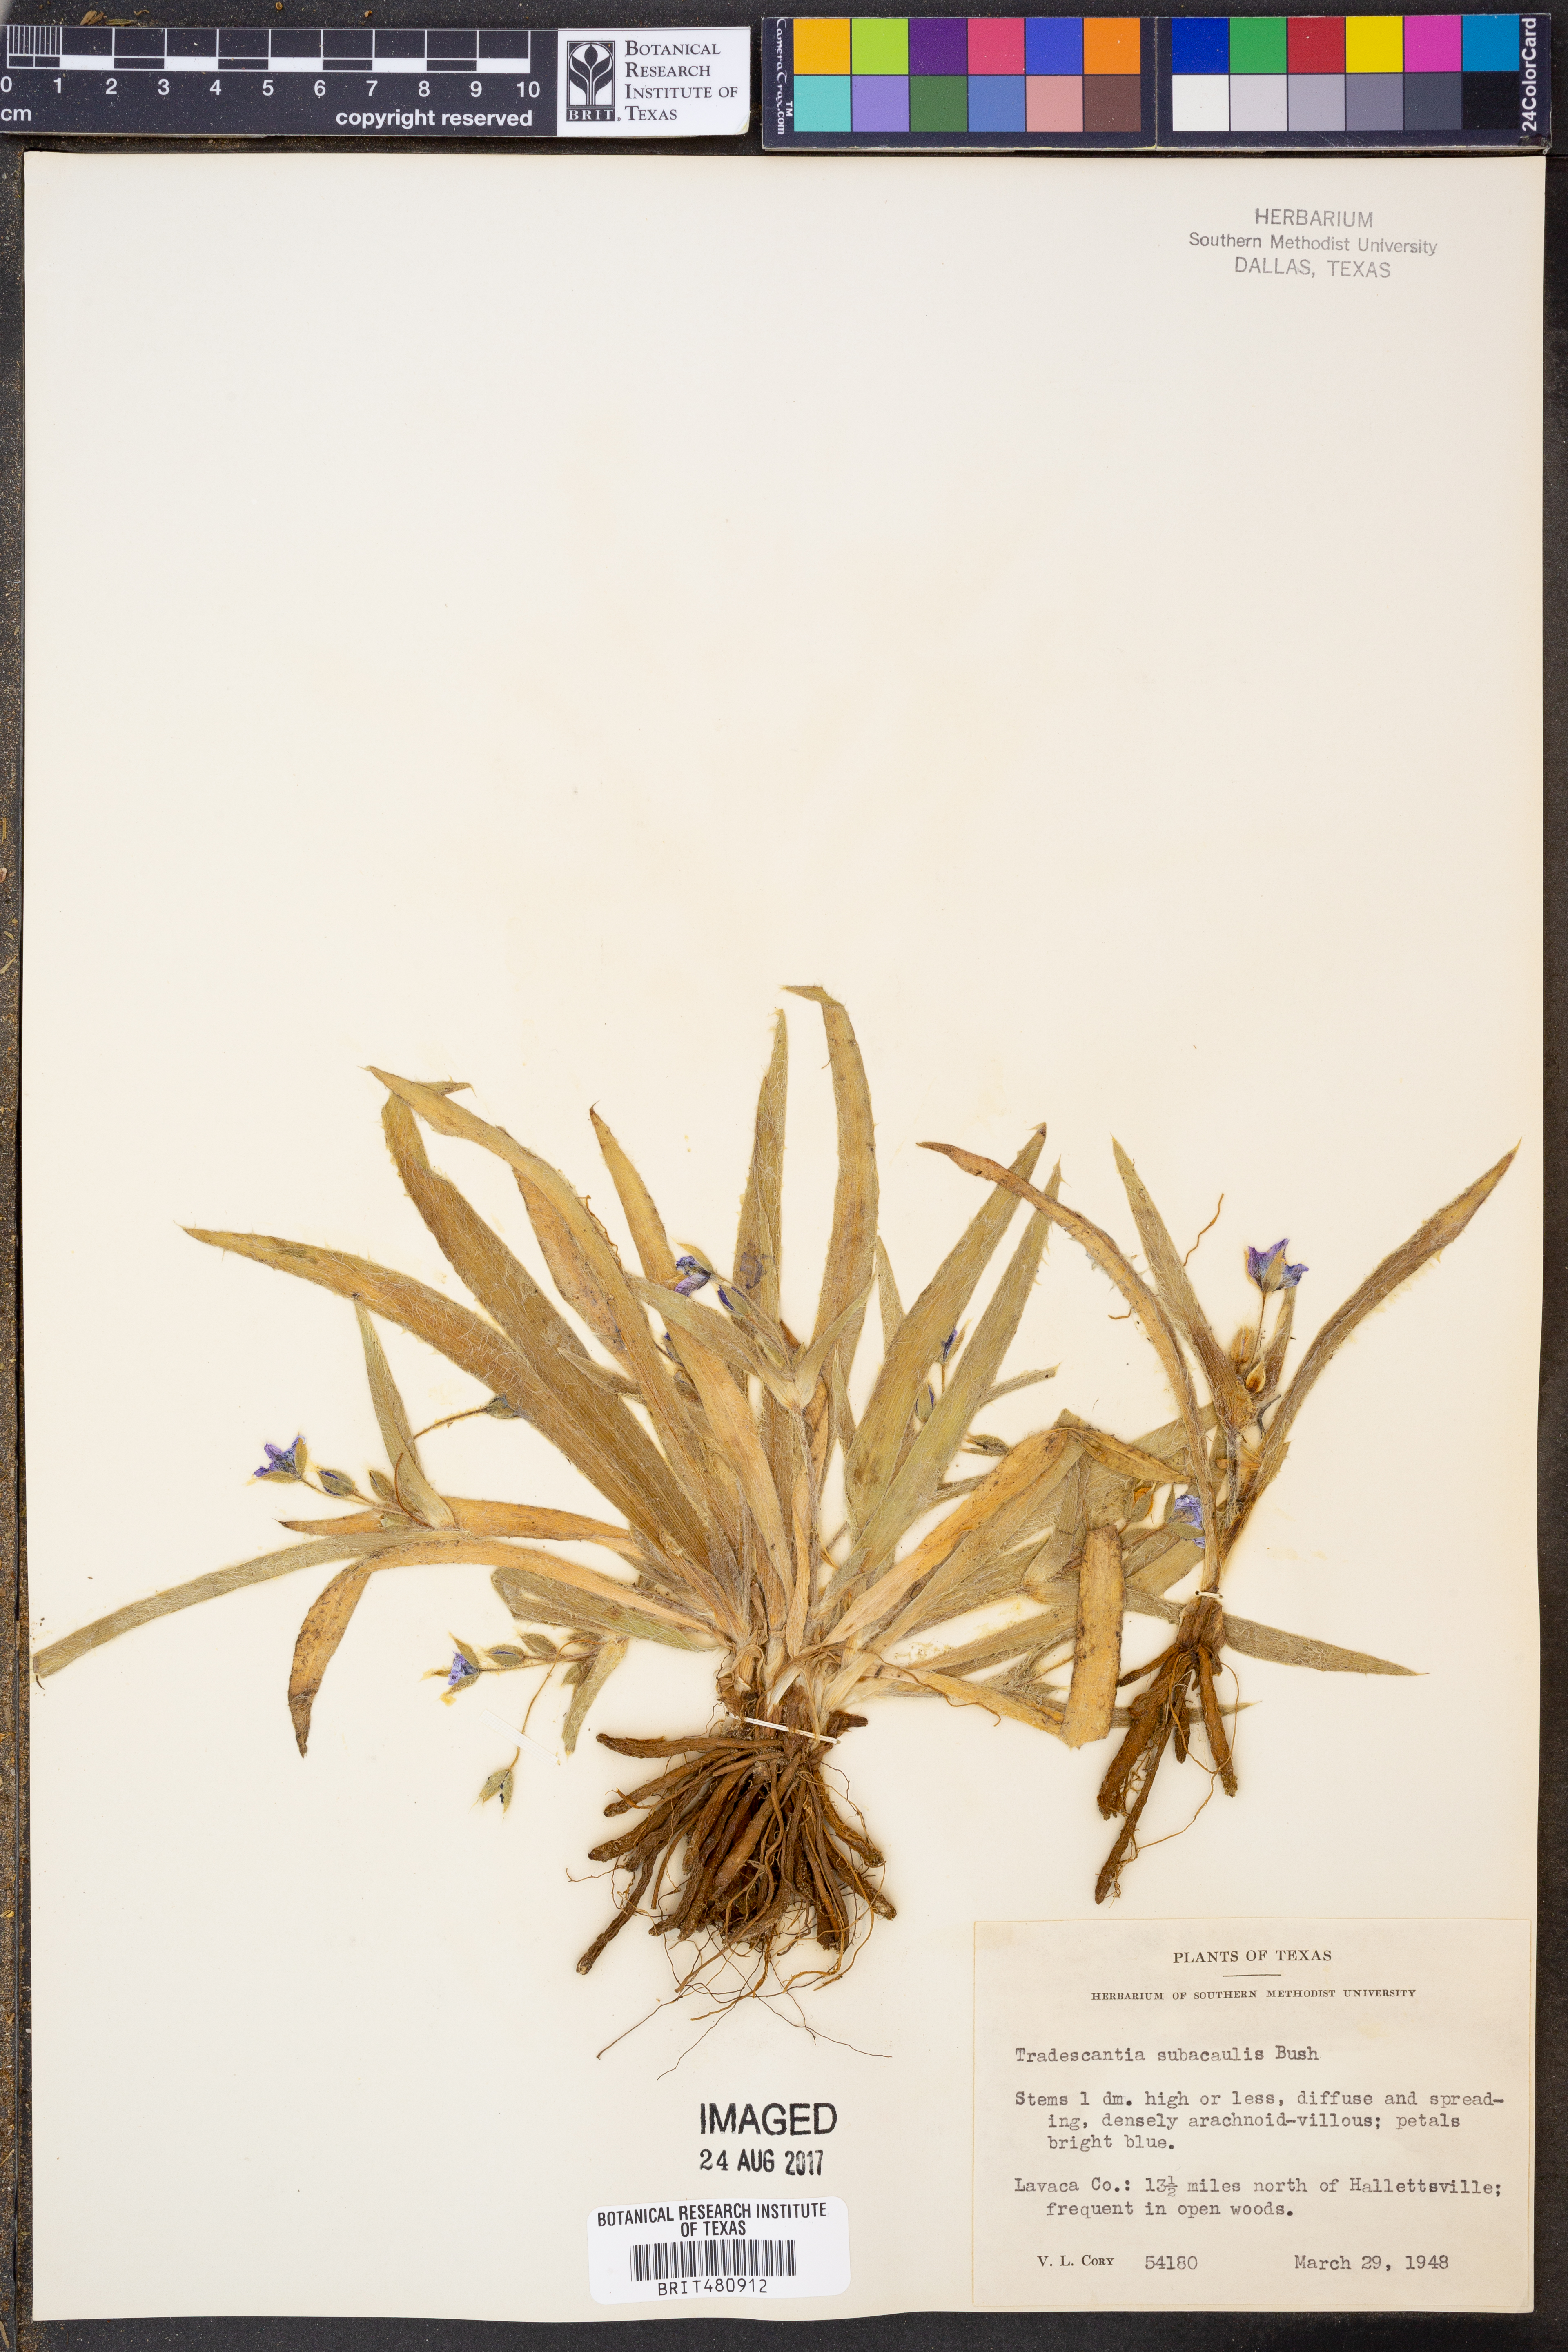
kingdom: Plantae
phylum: Tracheophyta
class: Liliopsida
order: Commelinales
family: Commelinaceae
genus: Tradescantia
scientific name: Tradescantia subacaulis
